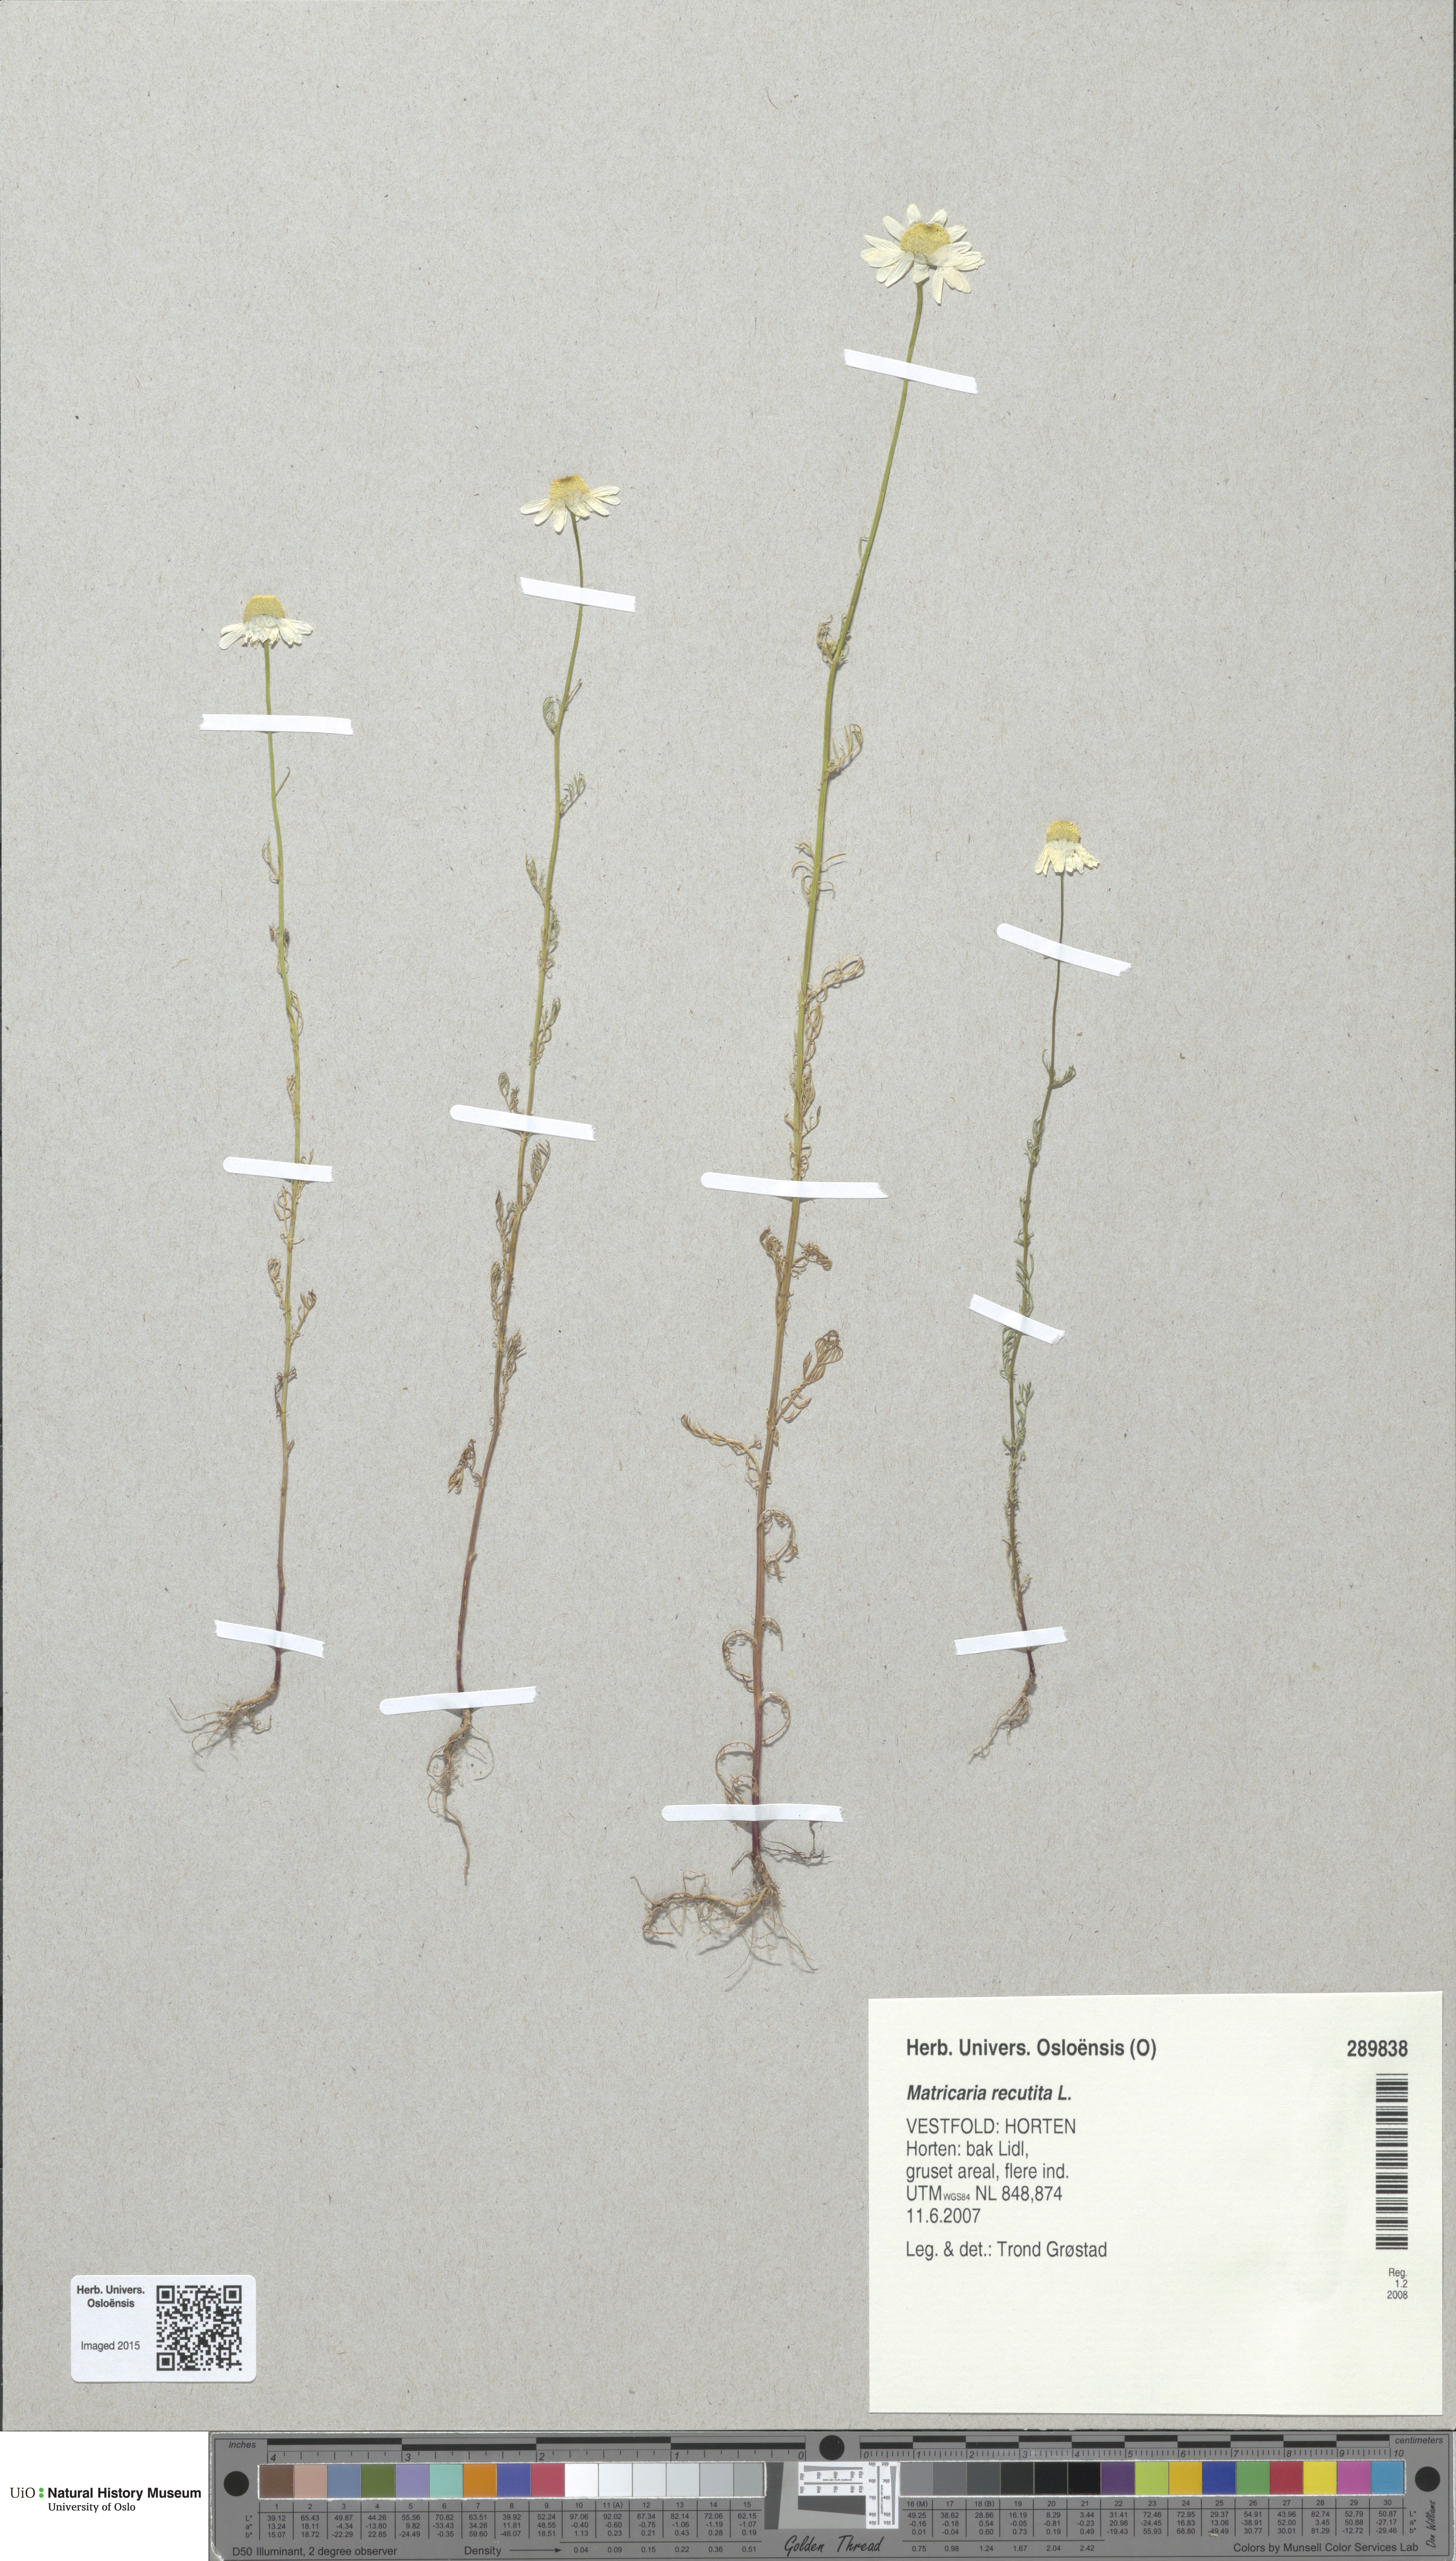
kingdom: Plantae
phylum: Tracheophyta
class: Magnoliopsida
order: Asterales
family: Asteraceae
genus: Matricaria
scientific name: Matricaria chamomilla
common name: Scented mayweed
